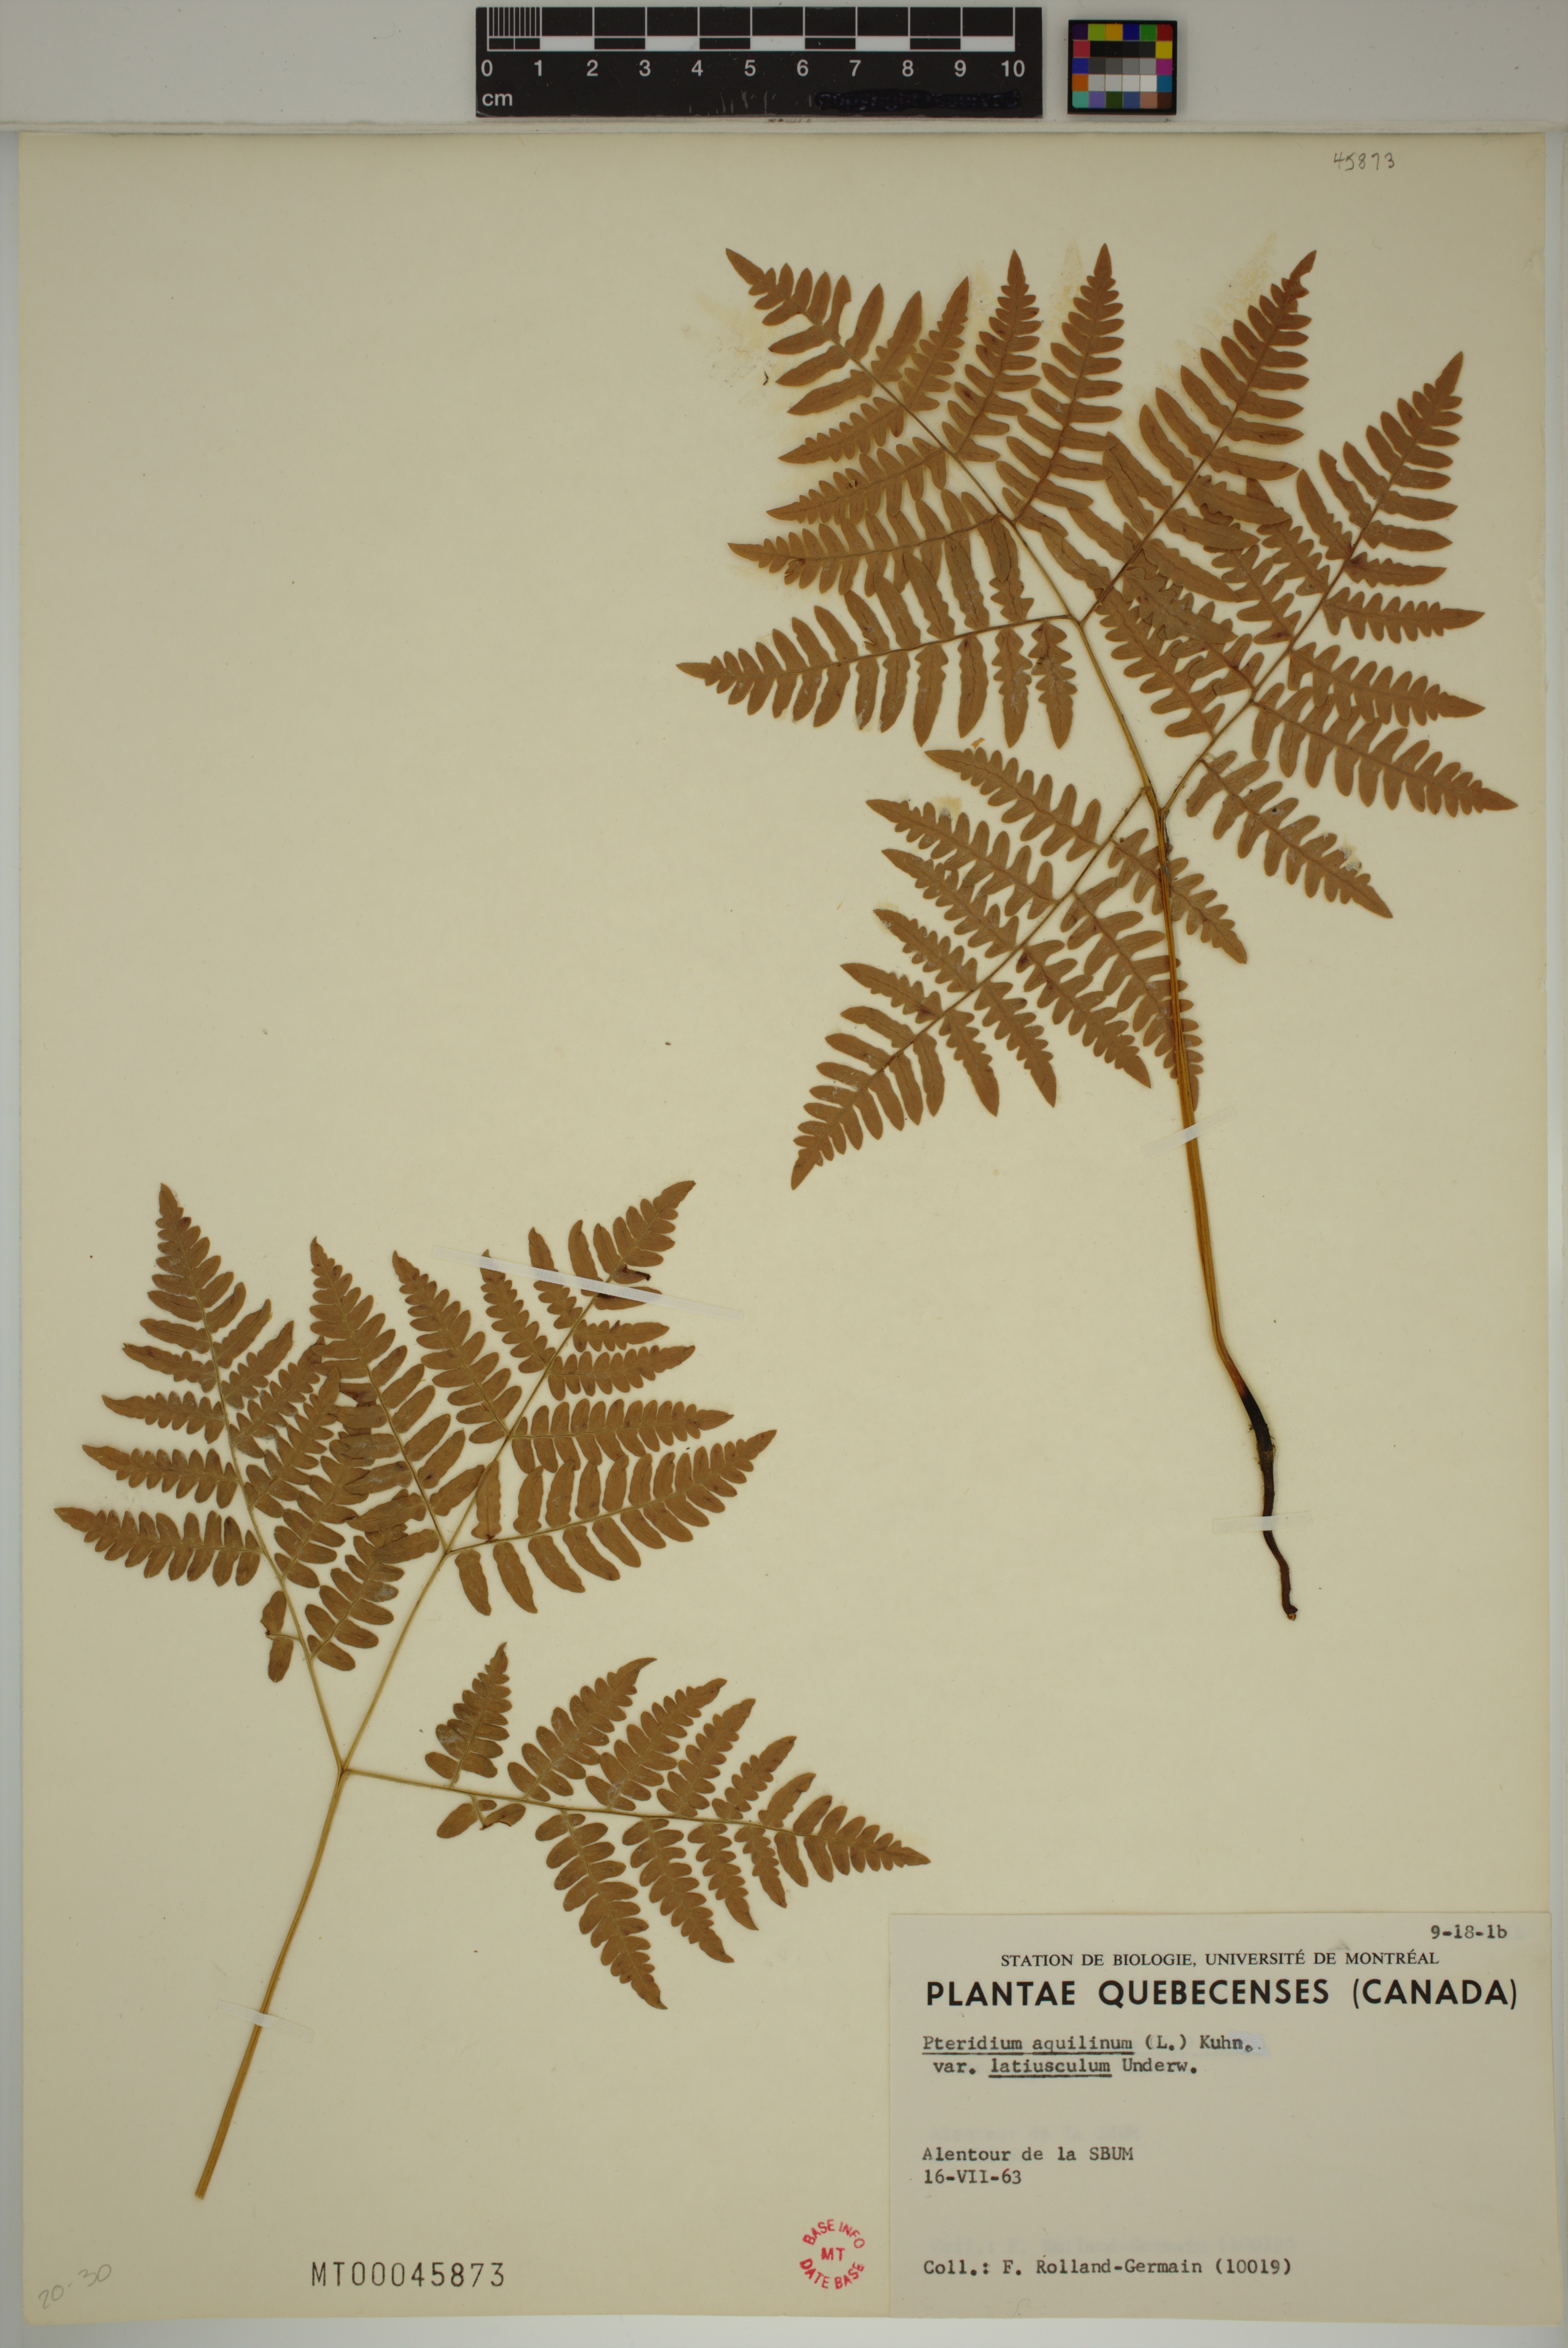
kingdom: Plantae
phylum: Tracheophyta
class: Polypodiopsida
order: Polypodiales
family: Dennstaedtiaceae
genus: Pteridium
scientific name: Pteridium aquilinum
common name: Bracken
